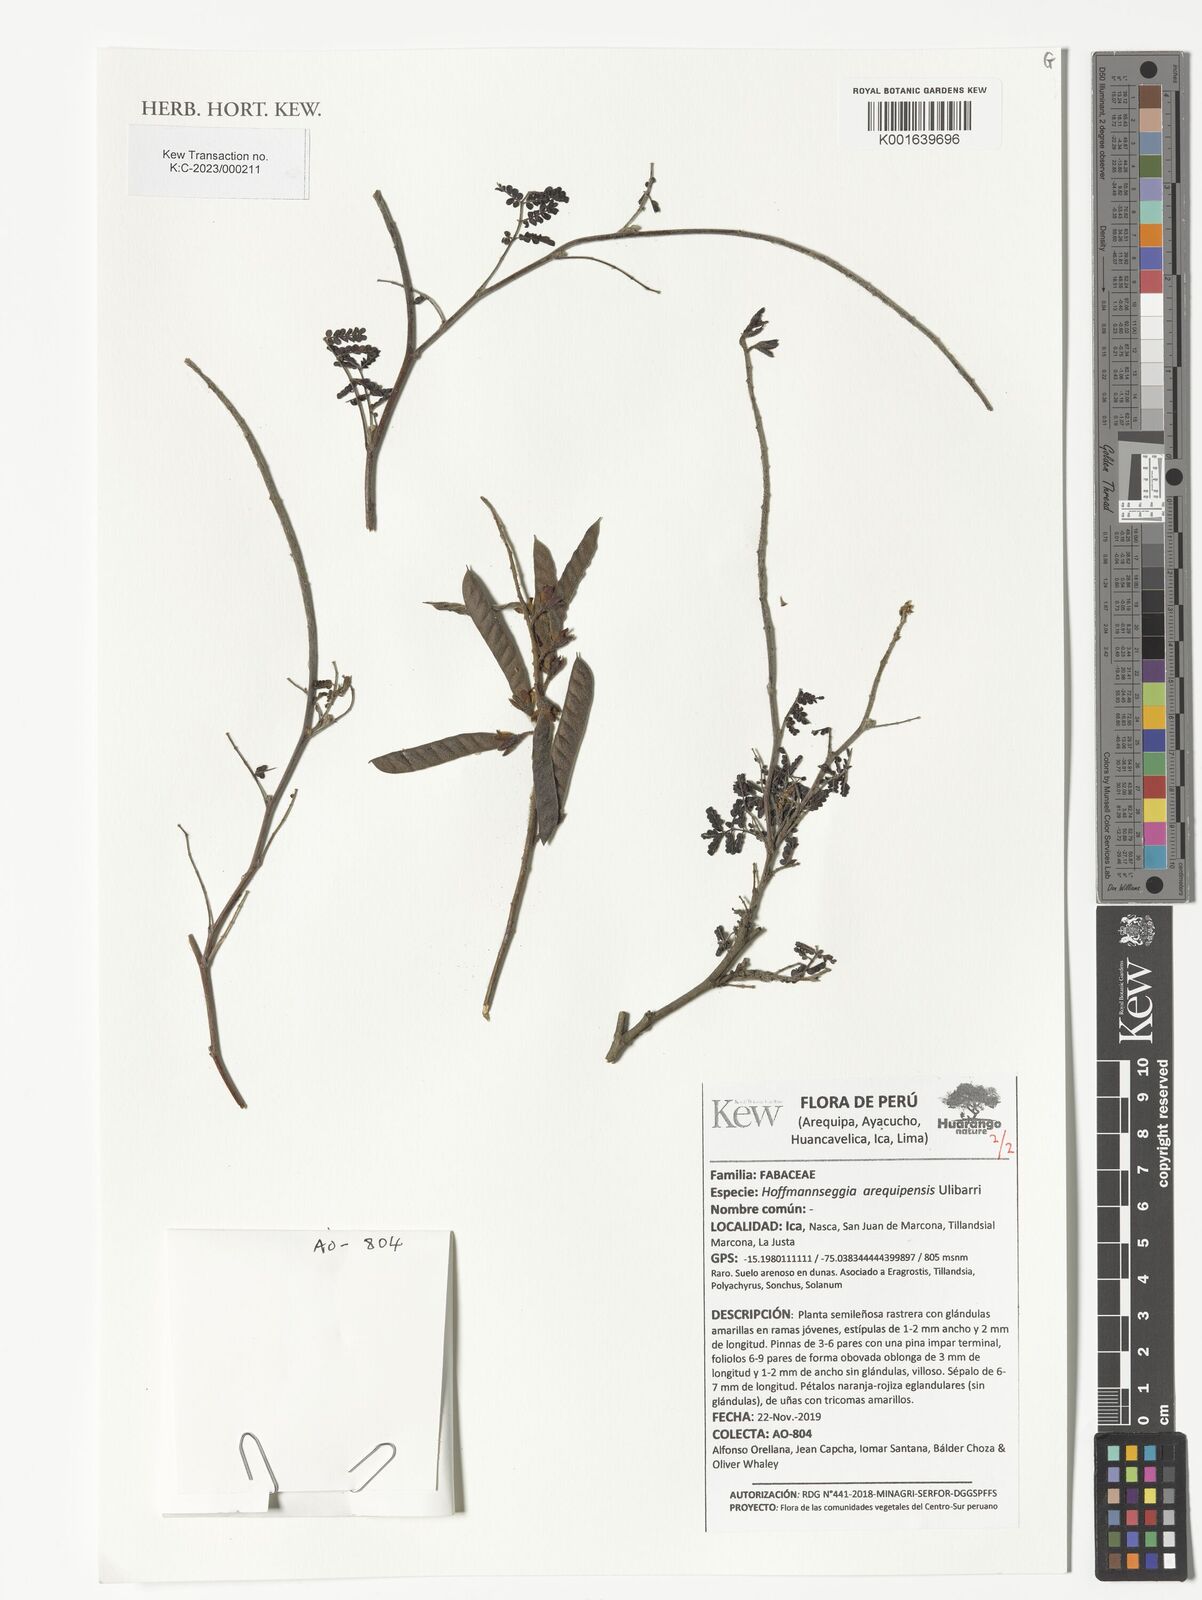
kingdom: Plantae
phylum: Tracheophyta
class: Magnoliopsida
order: Fabales
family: Fabaceae
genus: Hoffmannseggia
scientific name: Hoffmannseggia arequipensis
